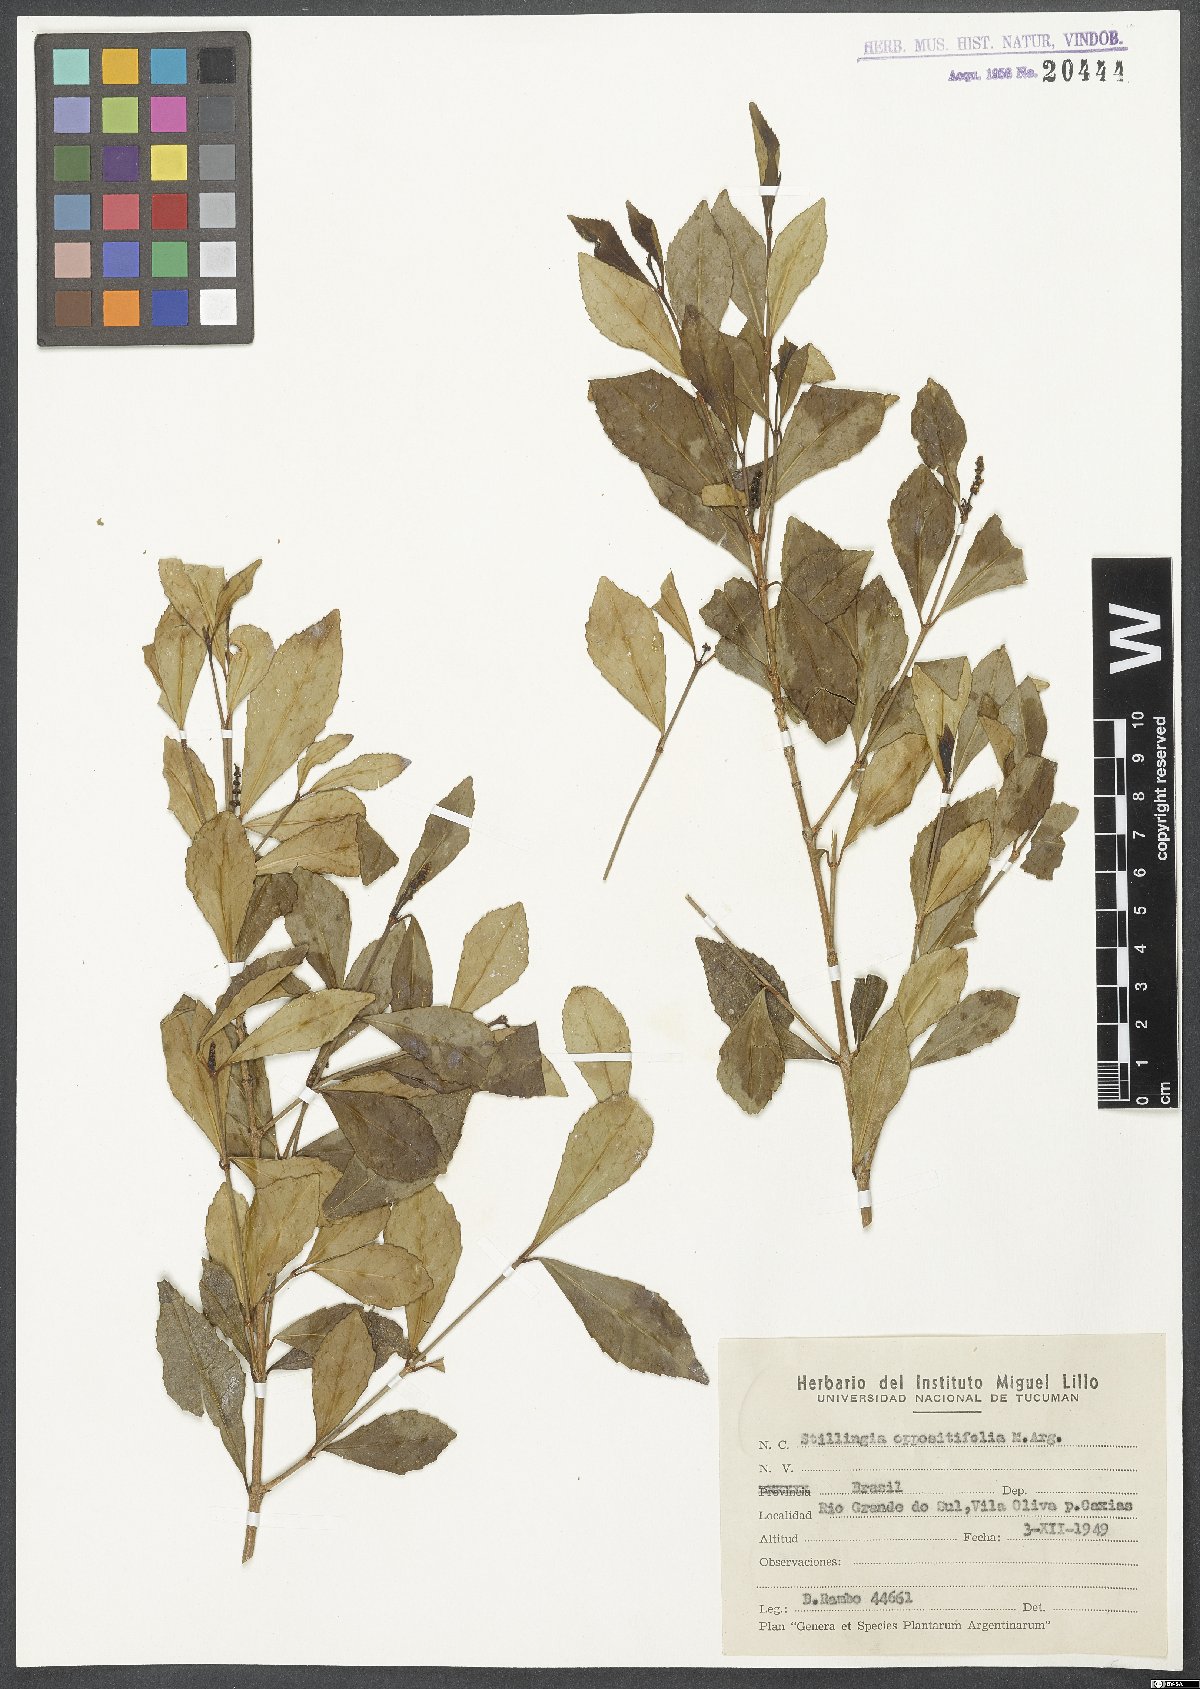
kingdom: Plantae
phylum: Tracheophyta
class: Magnoliopsida
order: Malpighiales
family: Euphorbiaceae
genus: Stillingia
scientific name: Stillingia oppositifolia
